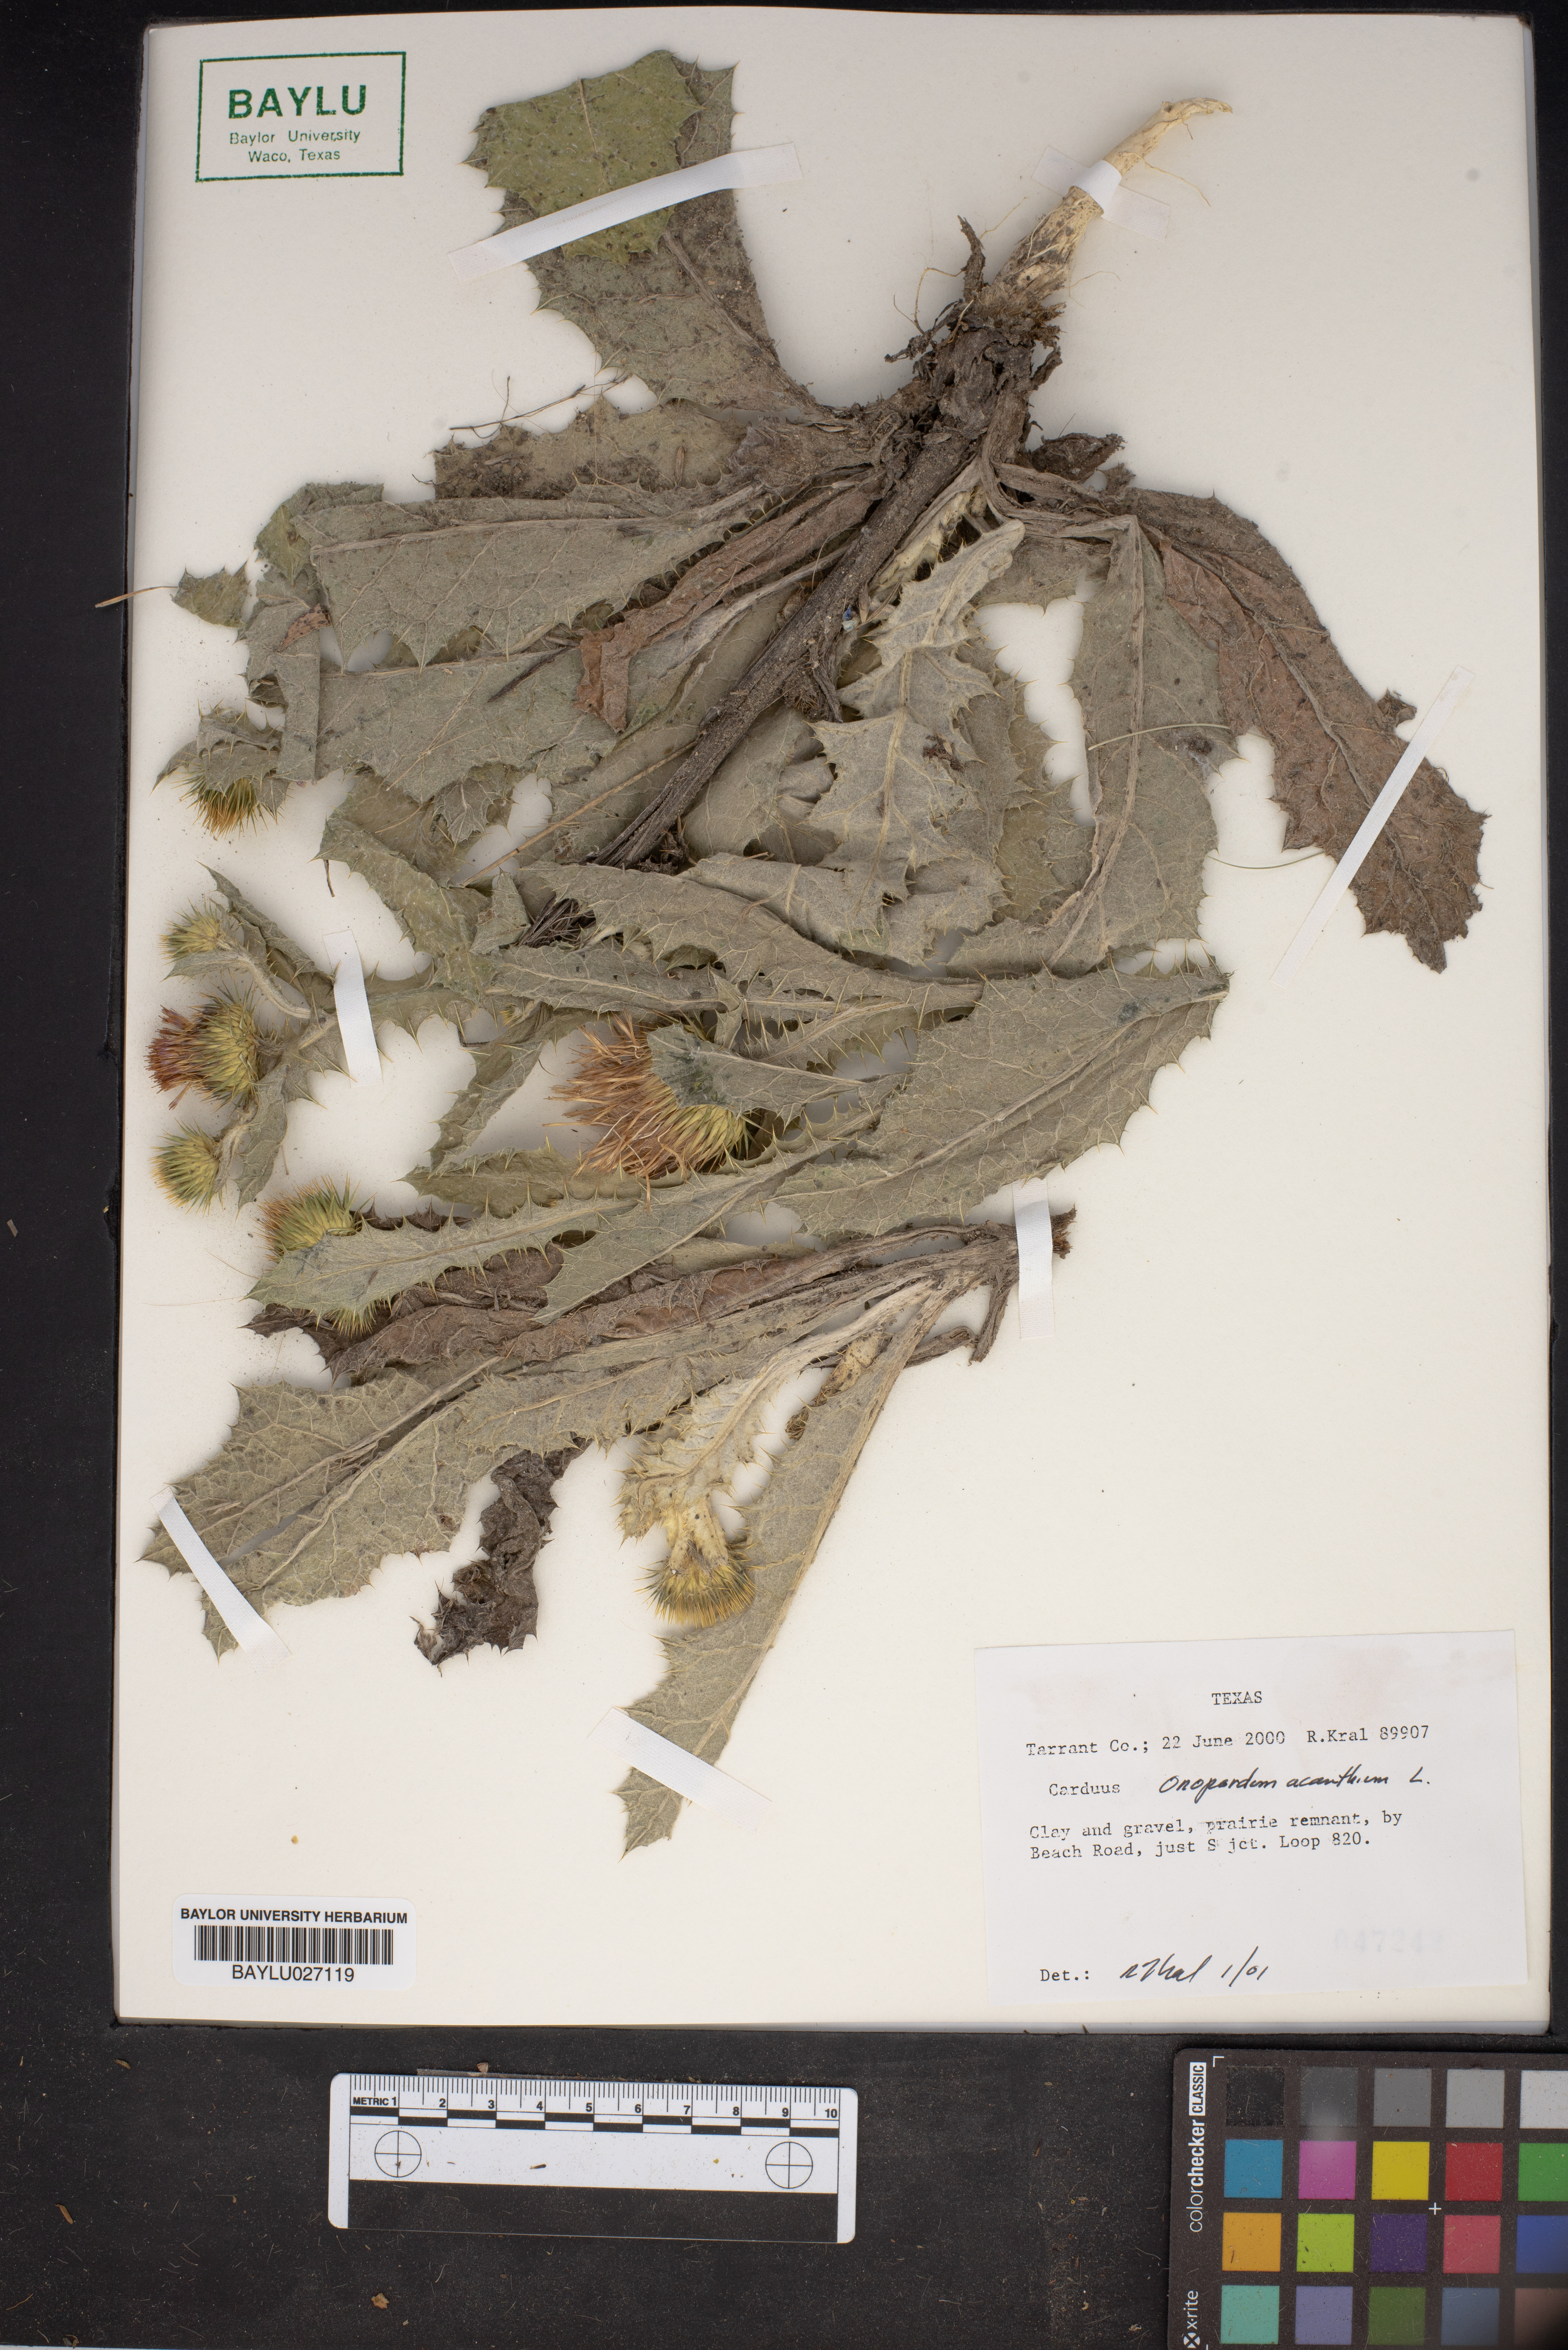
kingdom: Plantae
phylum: Tracheophyta
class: Magnoliopsida
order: Asterales
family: Asteraceae
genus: Onopordum
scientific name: Onopordum acanthium
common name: Scotch thistle
